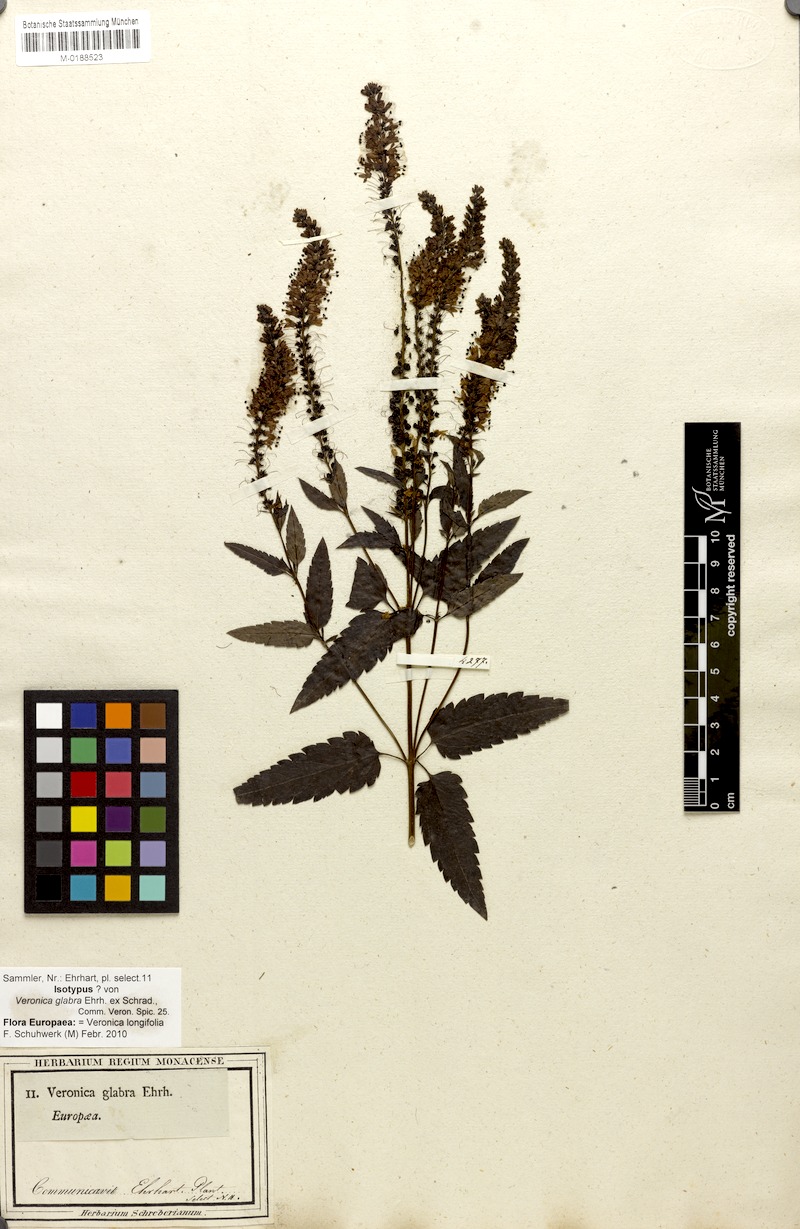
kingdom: Plantae
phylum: Tracheophyta
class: Magnoliopsida
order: Lamiales
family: Plantaginaceae
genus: Veronica
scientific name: Veronica longifolia
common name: Garden speedwell
